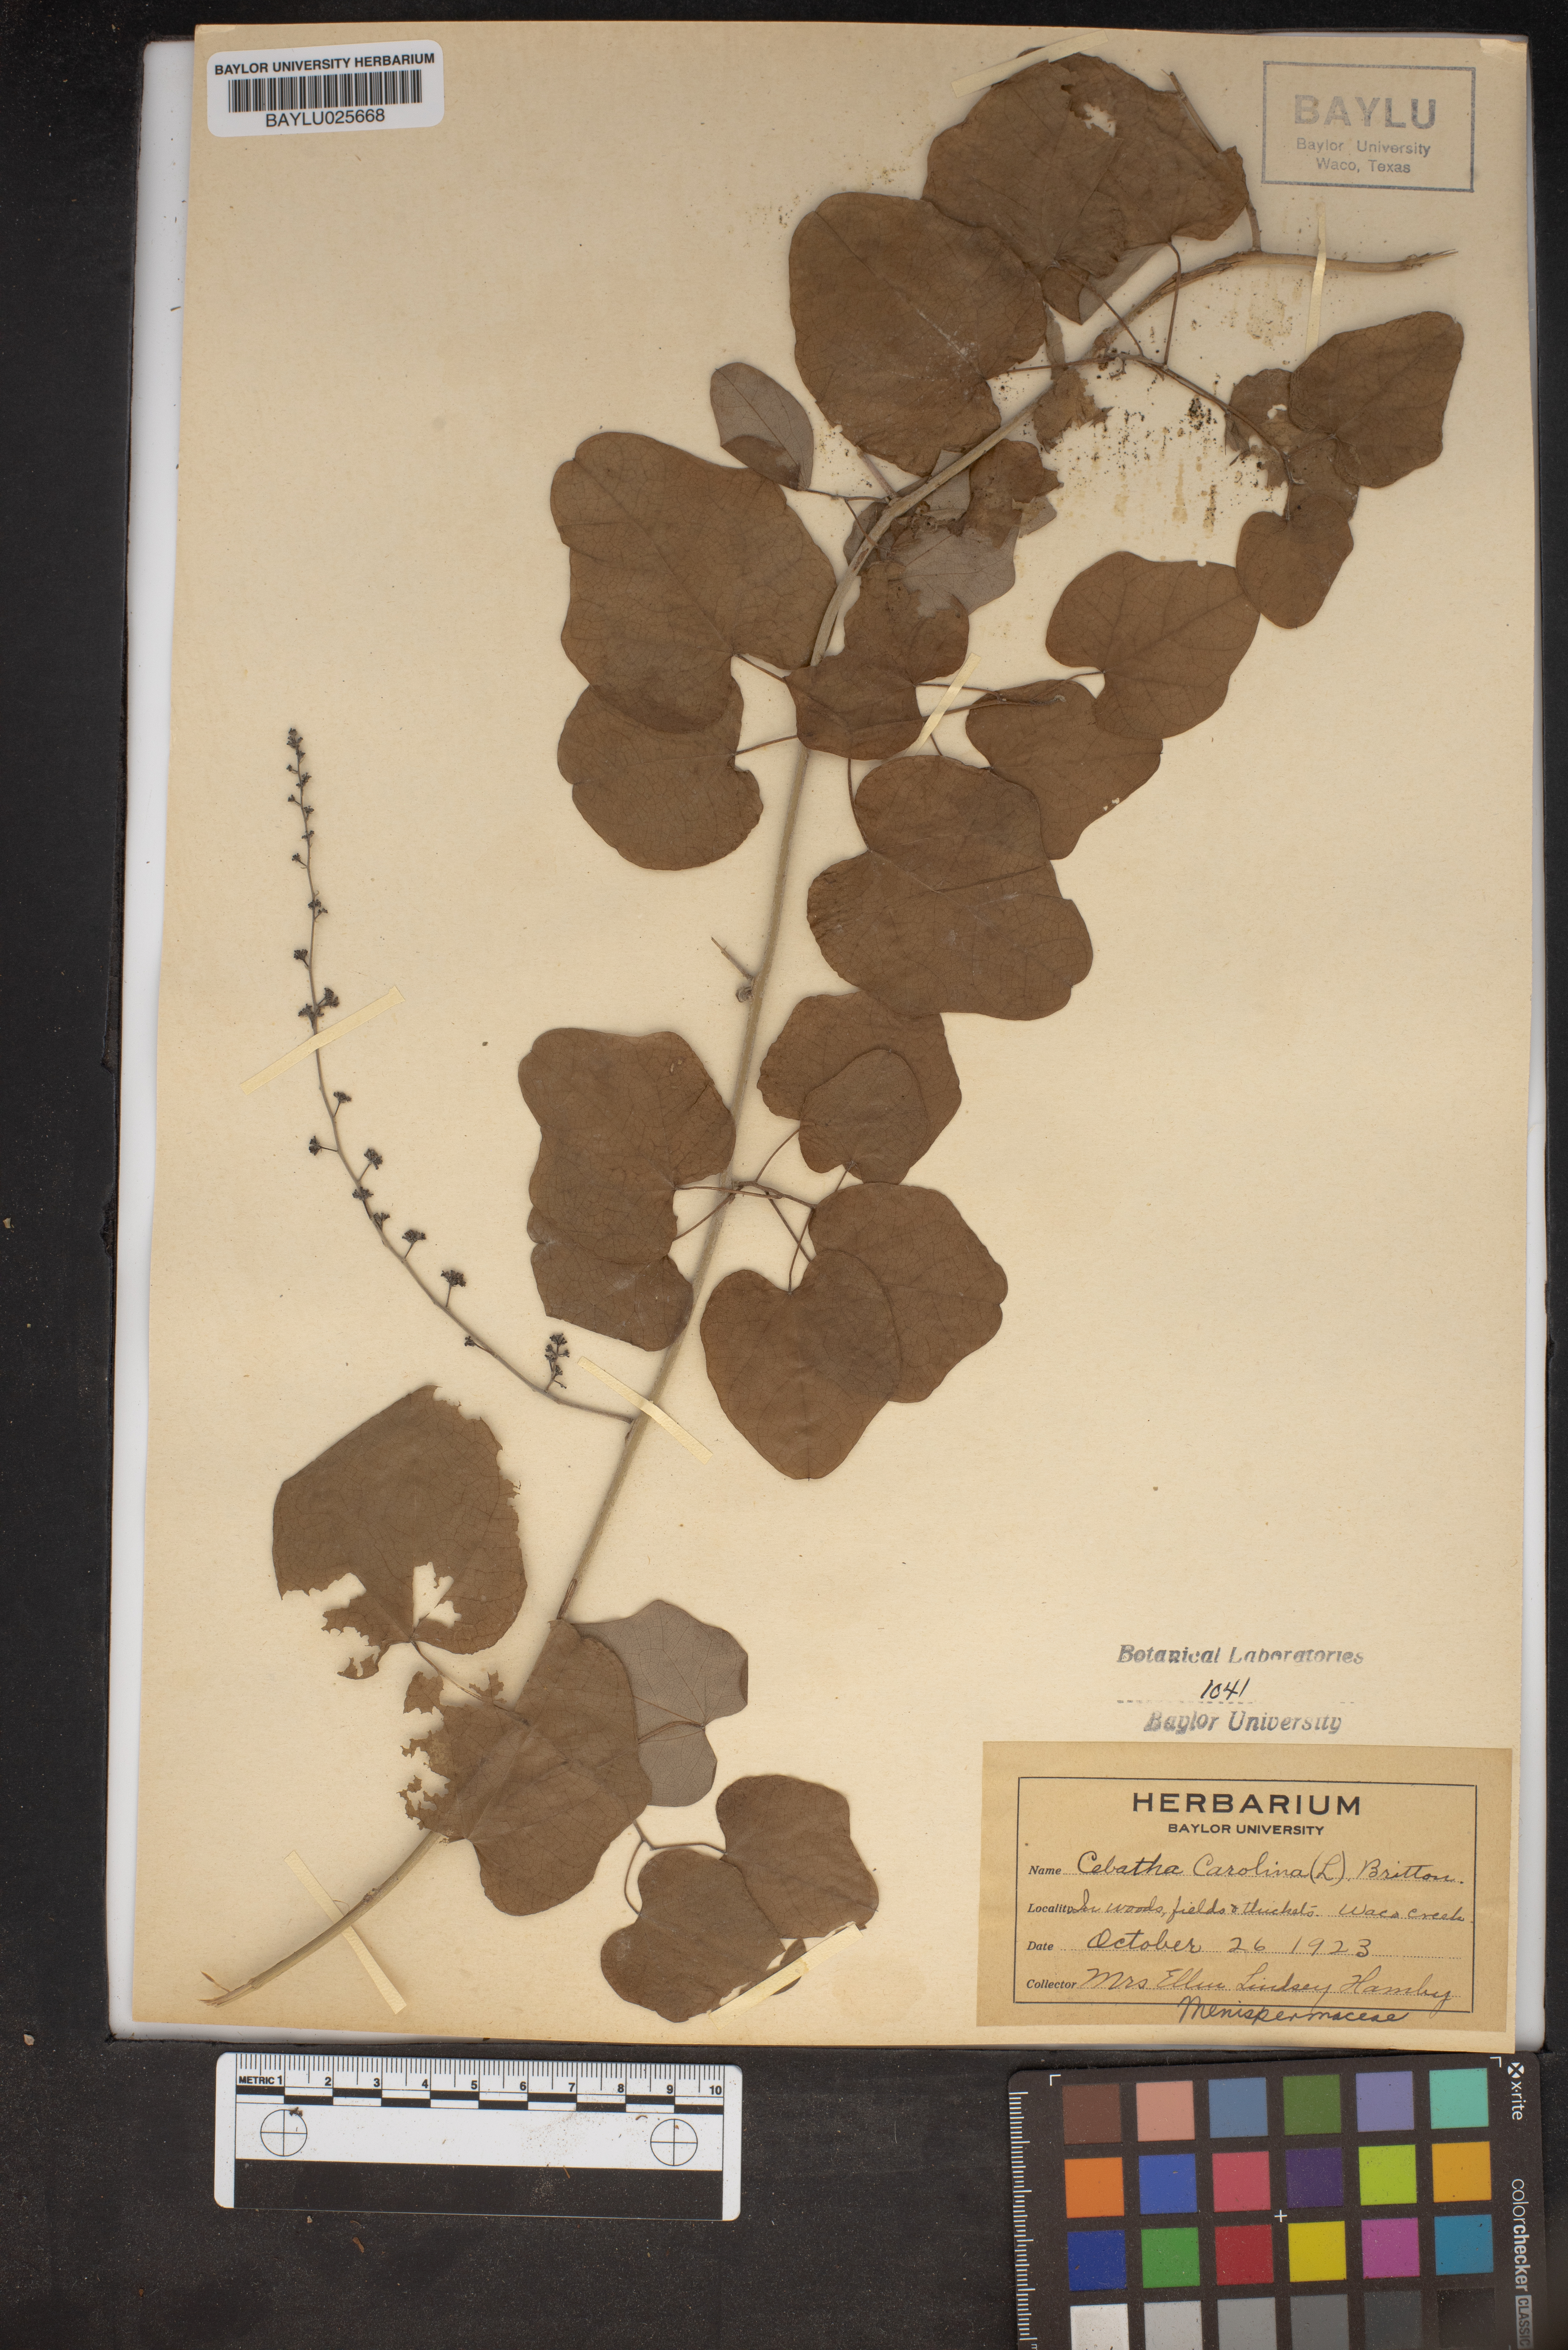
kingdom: Plantae
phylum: Tracheophyta
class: Magnoliopsida
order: Ranunculales
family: Menispermaceae
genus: Cocculus
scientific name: Cocculus carolinus
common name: Carolina moonseed
